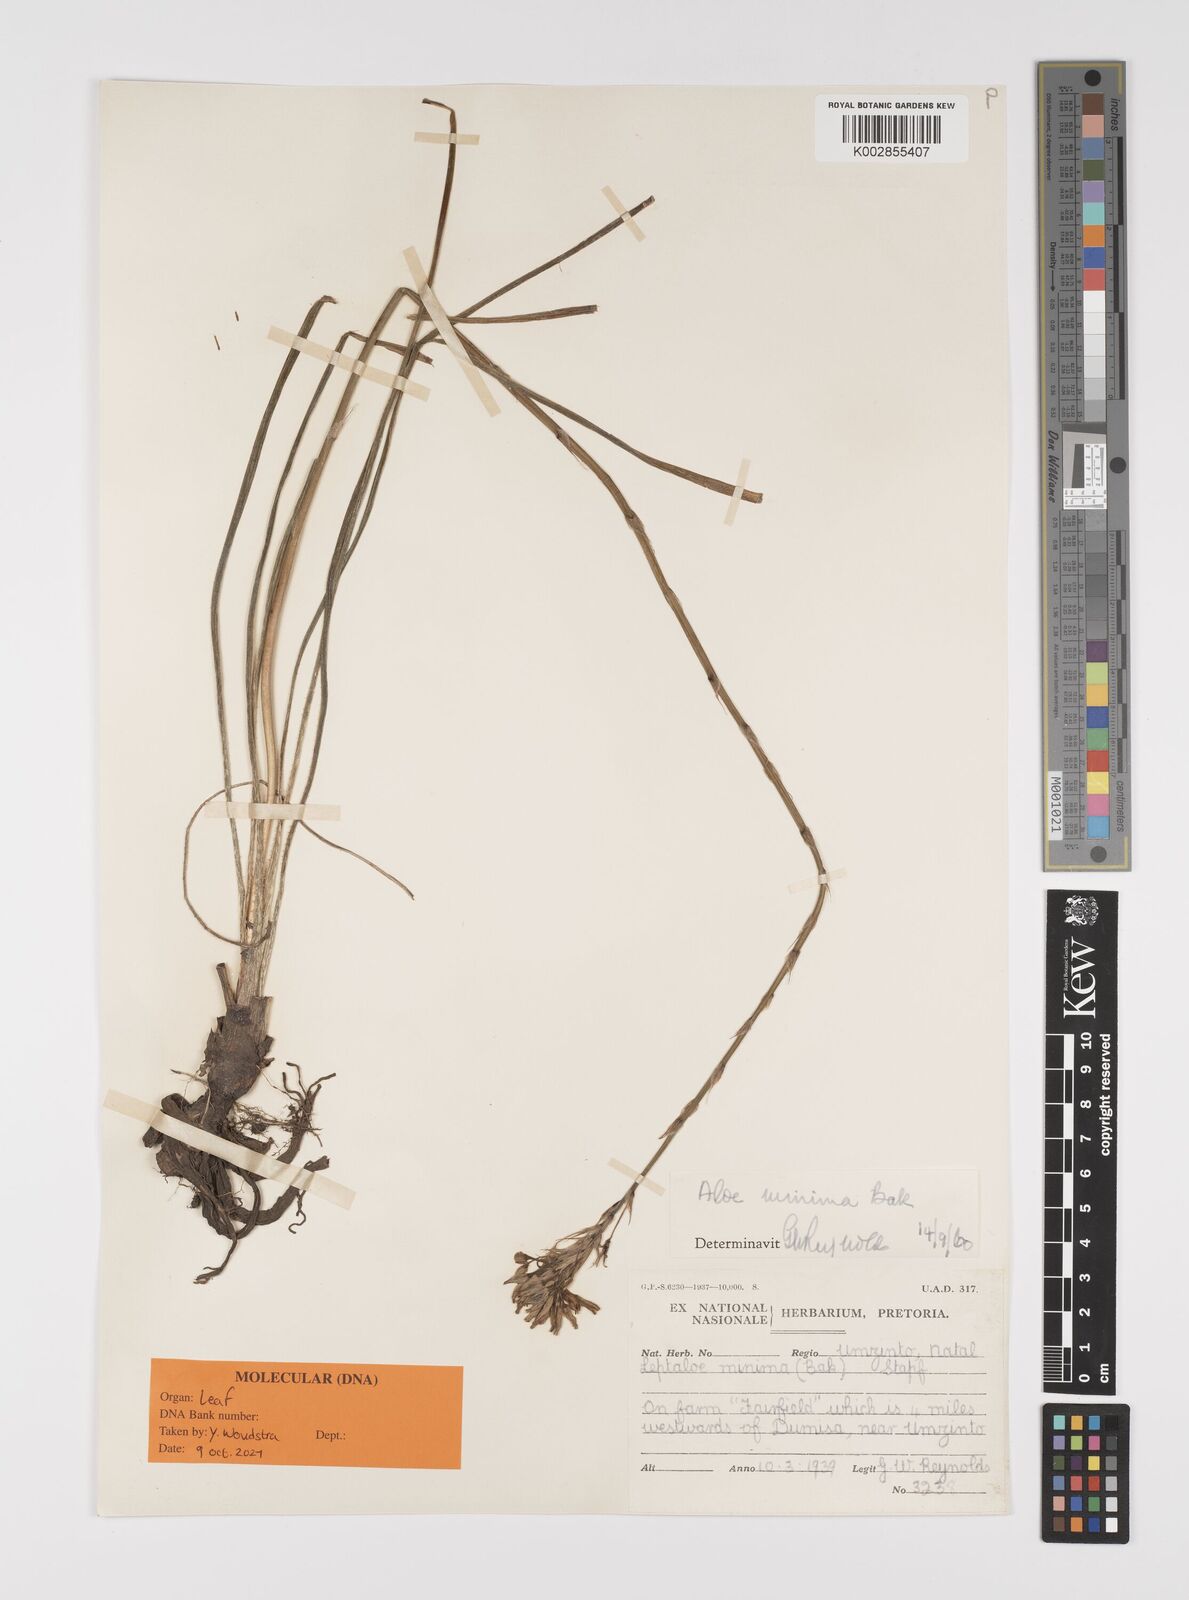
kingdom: Plantae
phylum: Tracheophyta
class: Liliopsida
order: Asparagales
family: Asphodelaceae
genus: Aloe
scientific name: Aloe minima
